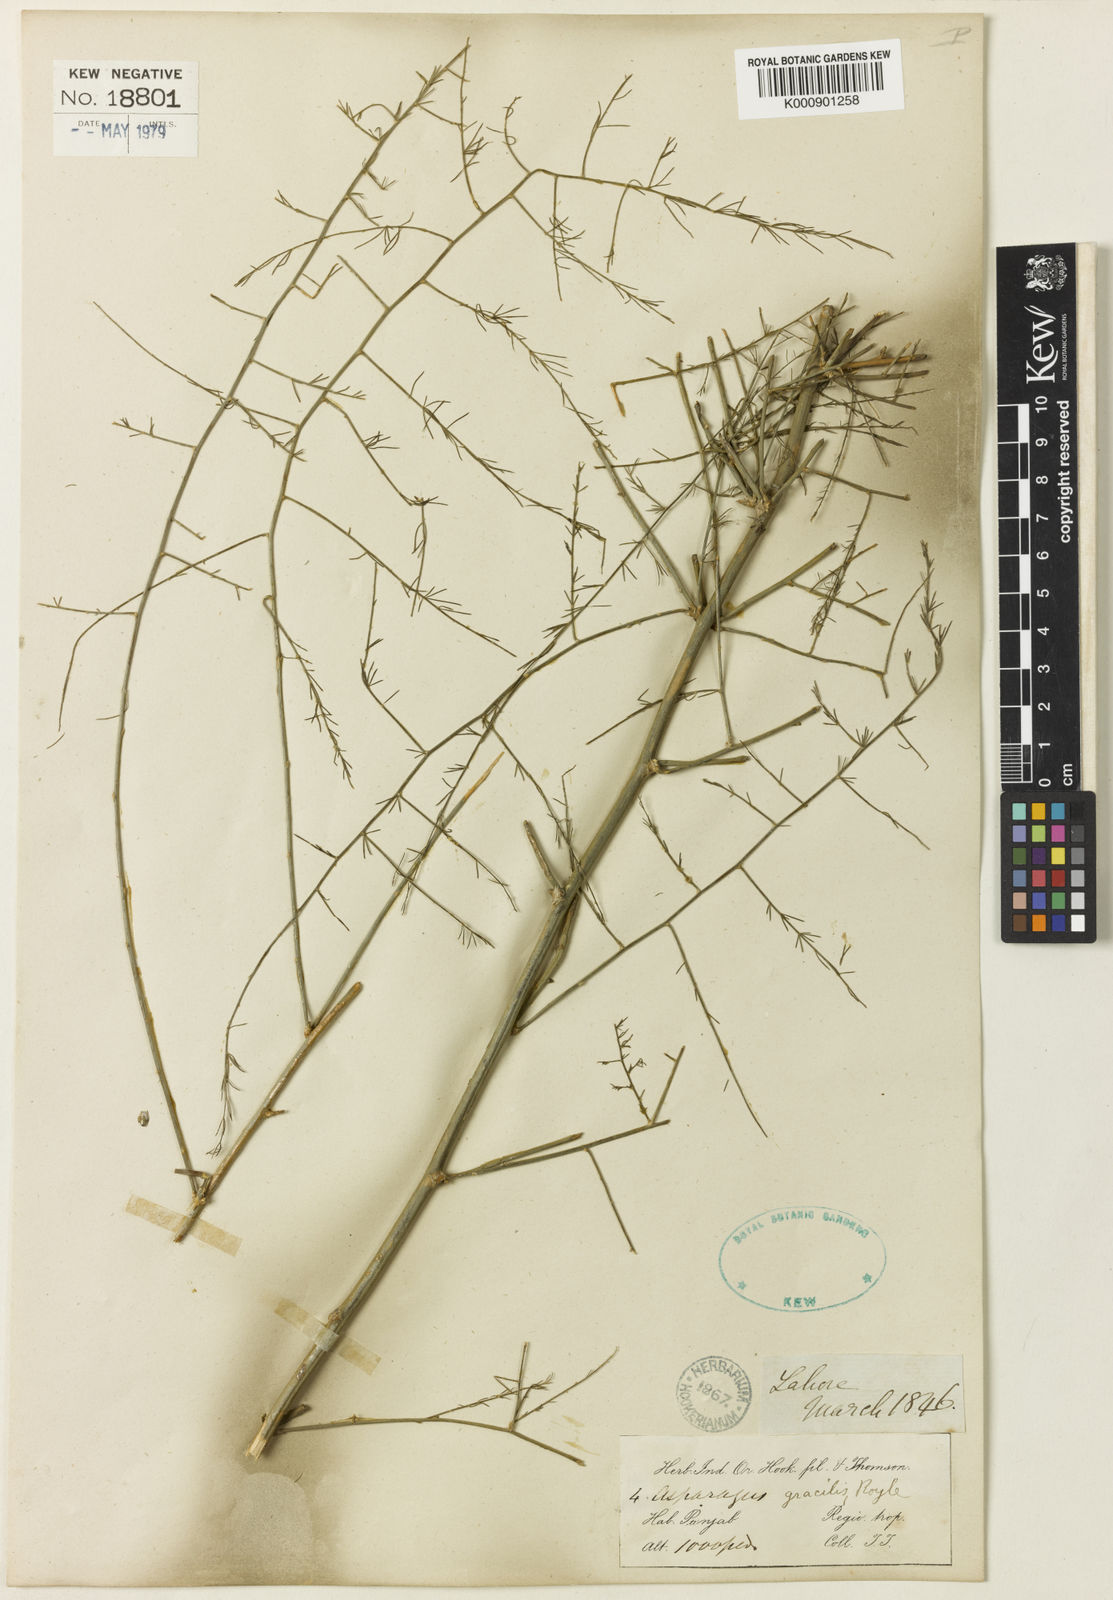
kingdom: Plantae
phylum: Tracheophyta
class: Liliopsida
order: Asparagales
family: Asparagaceae
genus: Asparagus
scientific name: Asparagus
